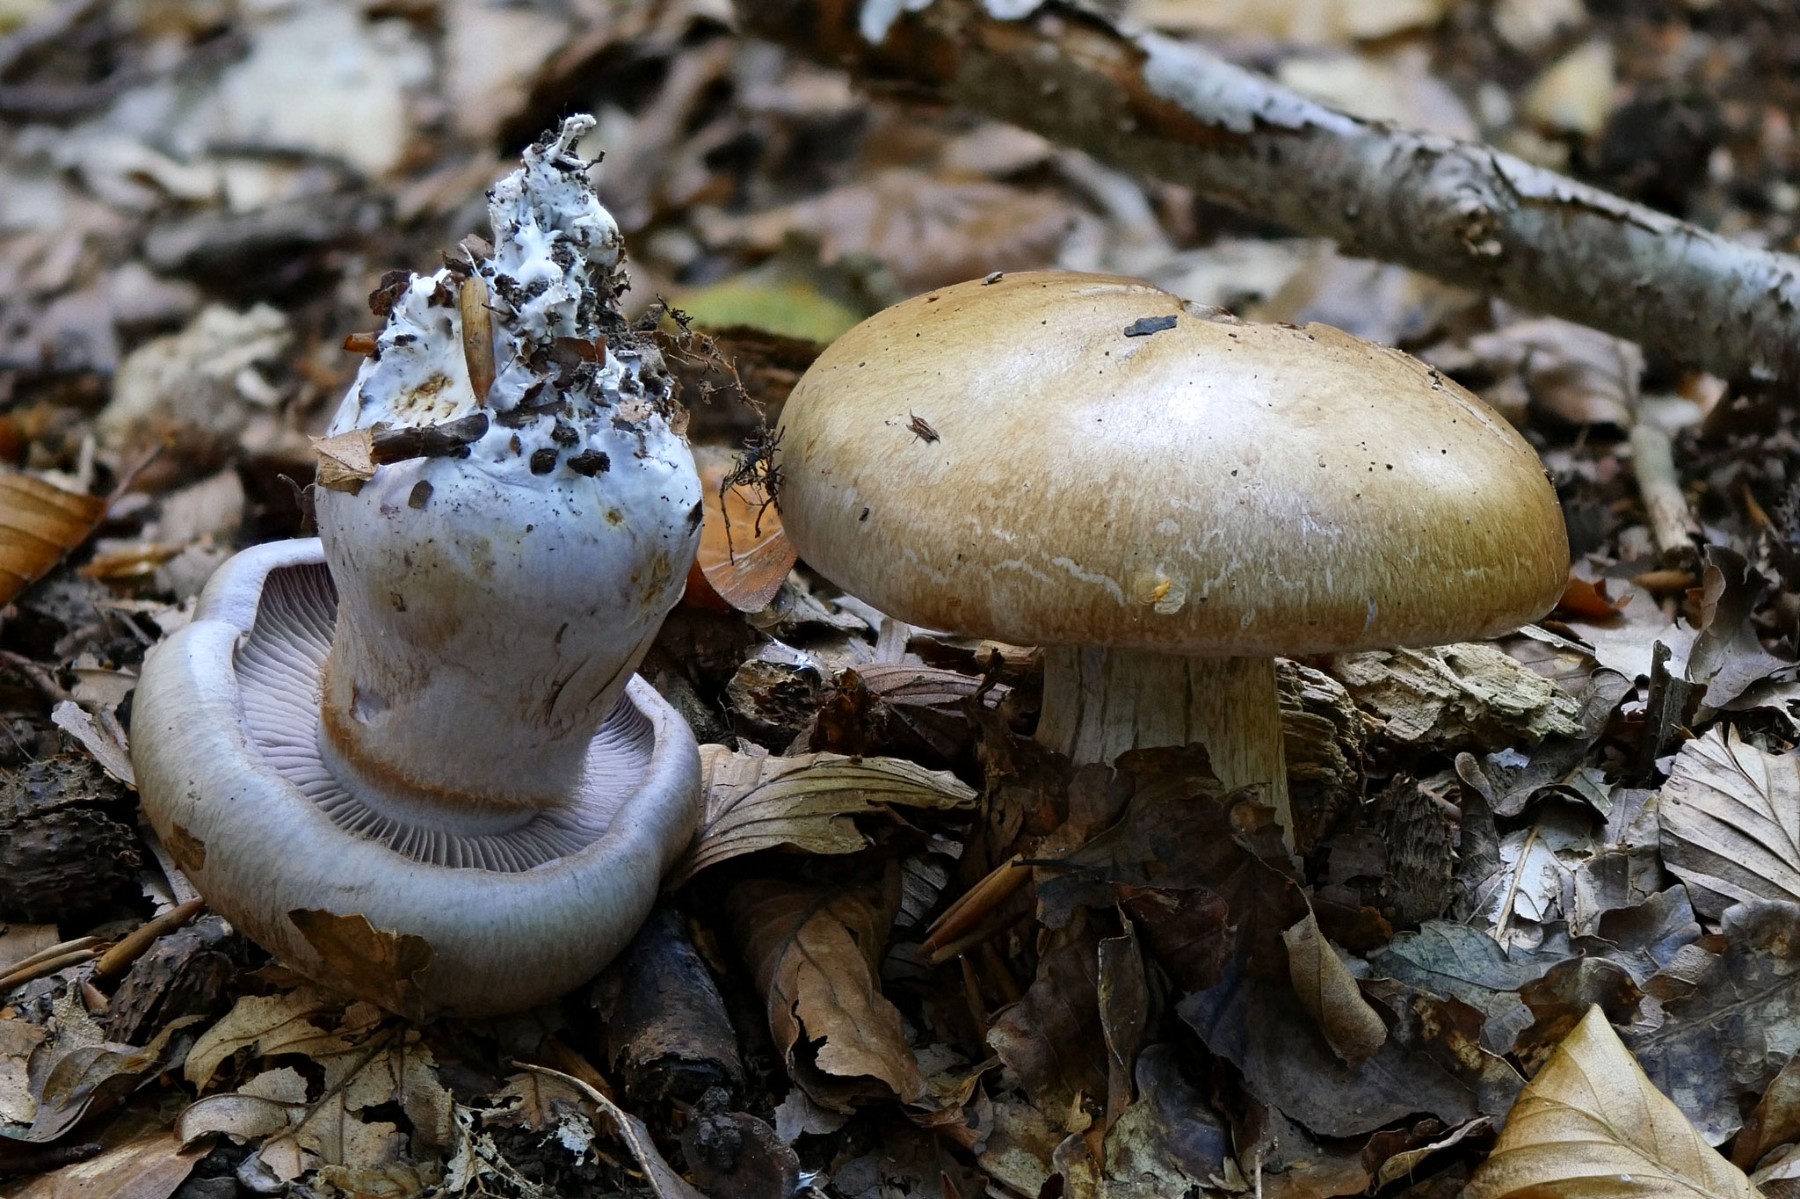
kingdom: Fungi
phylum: Basidiomycota
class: Agaricomycetes
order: Agaricales
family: Cortinariaceae
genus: Cortinarius
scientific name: Cortinarius largus
